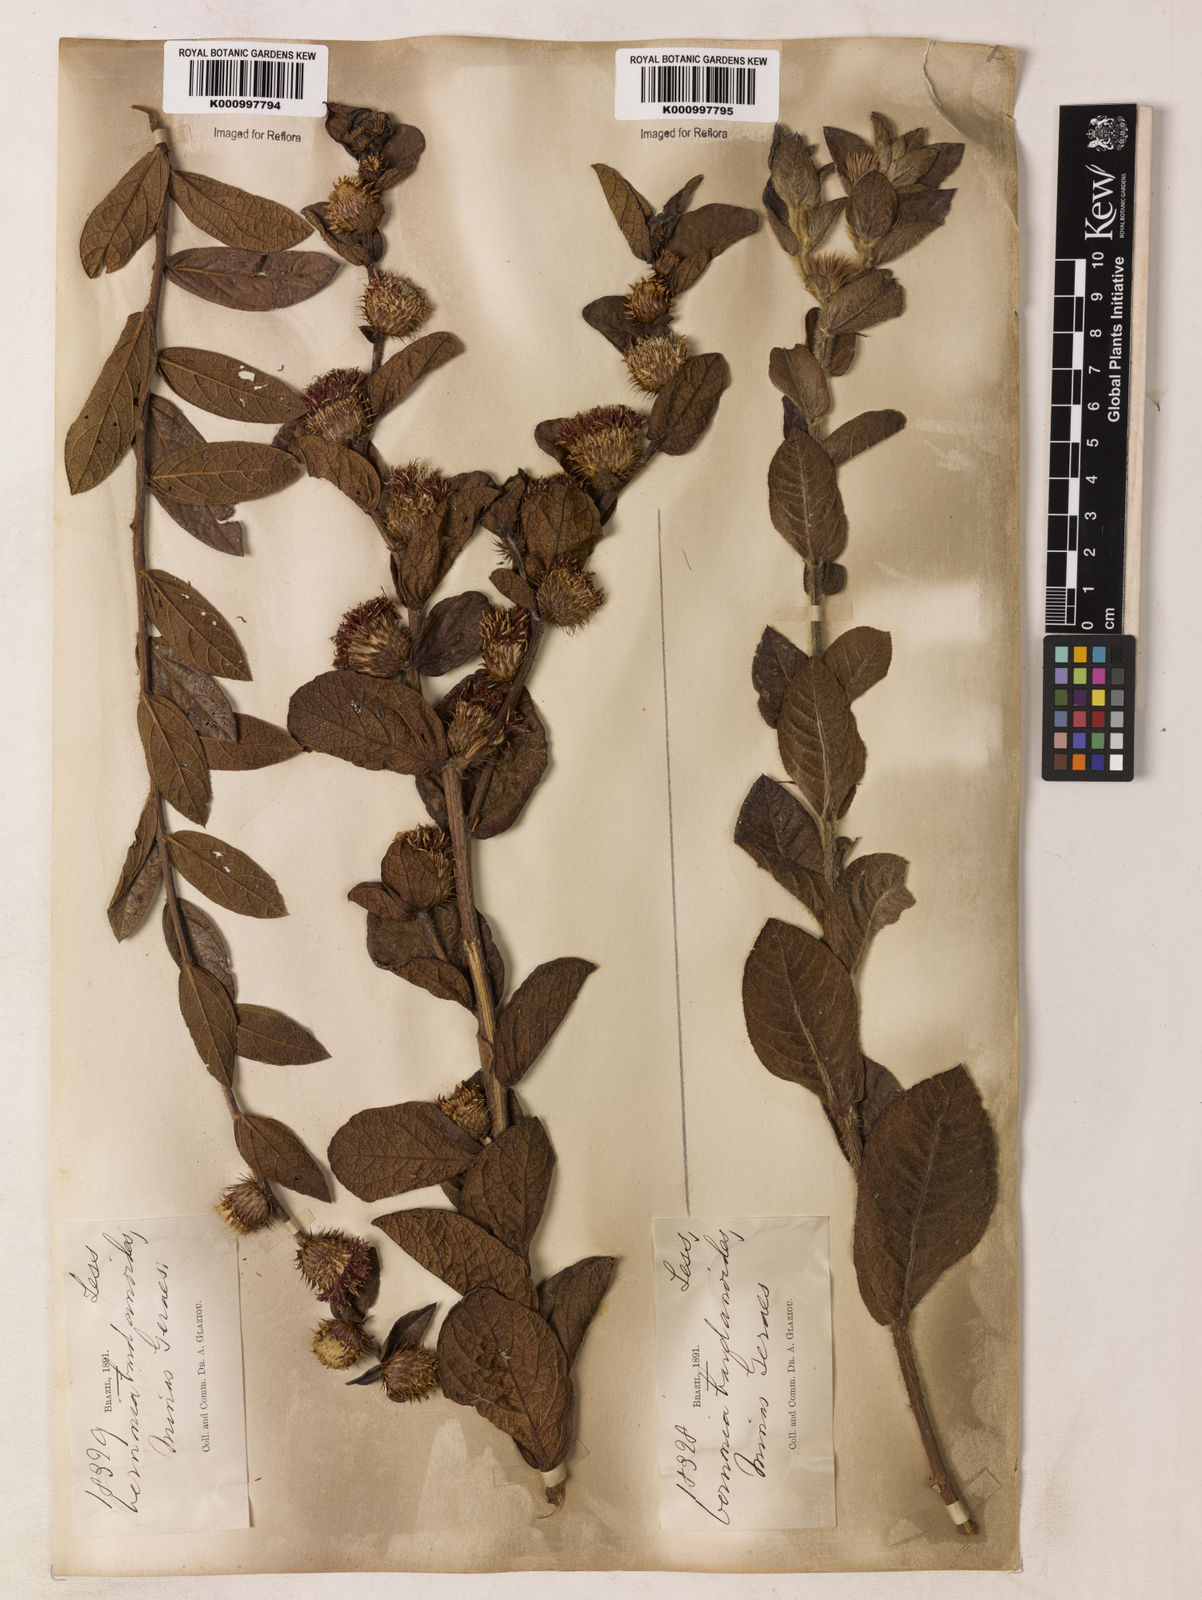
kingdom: Plantae
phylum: Tracheophyta
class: Magnoliopsida
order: Asterales
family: Asteraceae
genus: Lessingianthus
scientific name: Lessingianthus bardanioides
